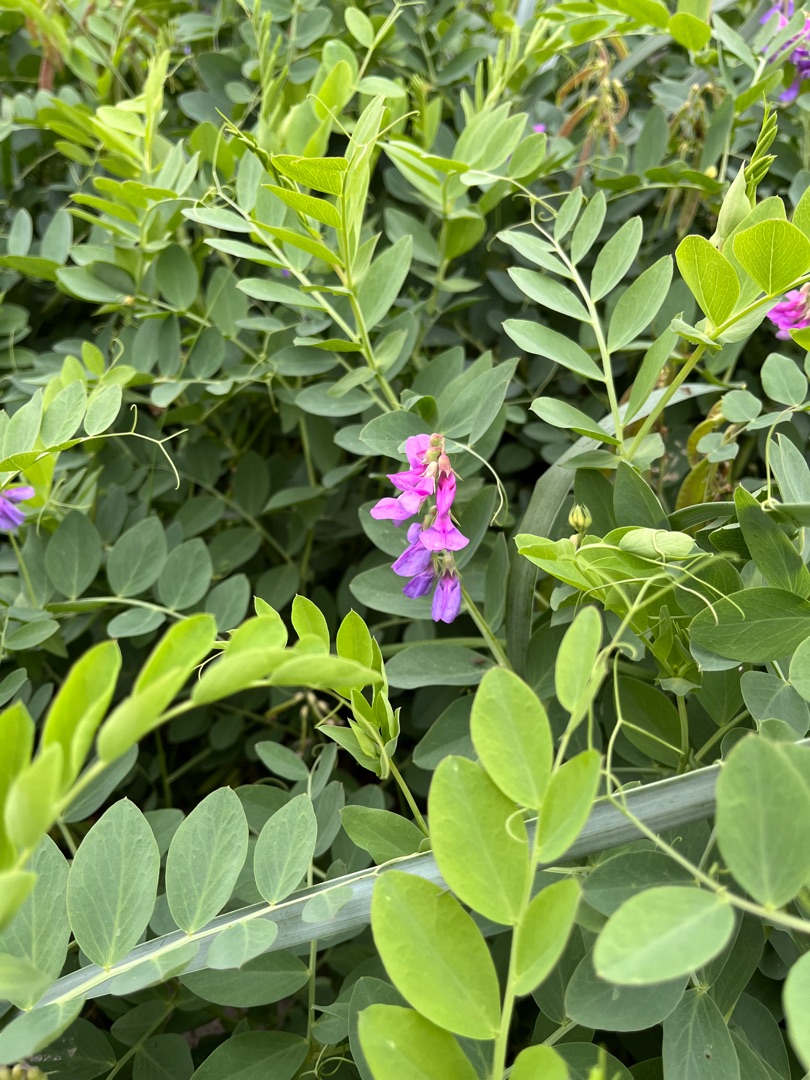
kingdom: Plantae
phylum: Tracheophyta
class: Magnoliopsida
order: Fabales
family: Fabaceae
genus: Lathyrus
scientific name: Lathyrus japonicus
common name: Strand-fladbælg
